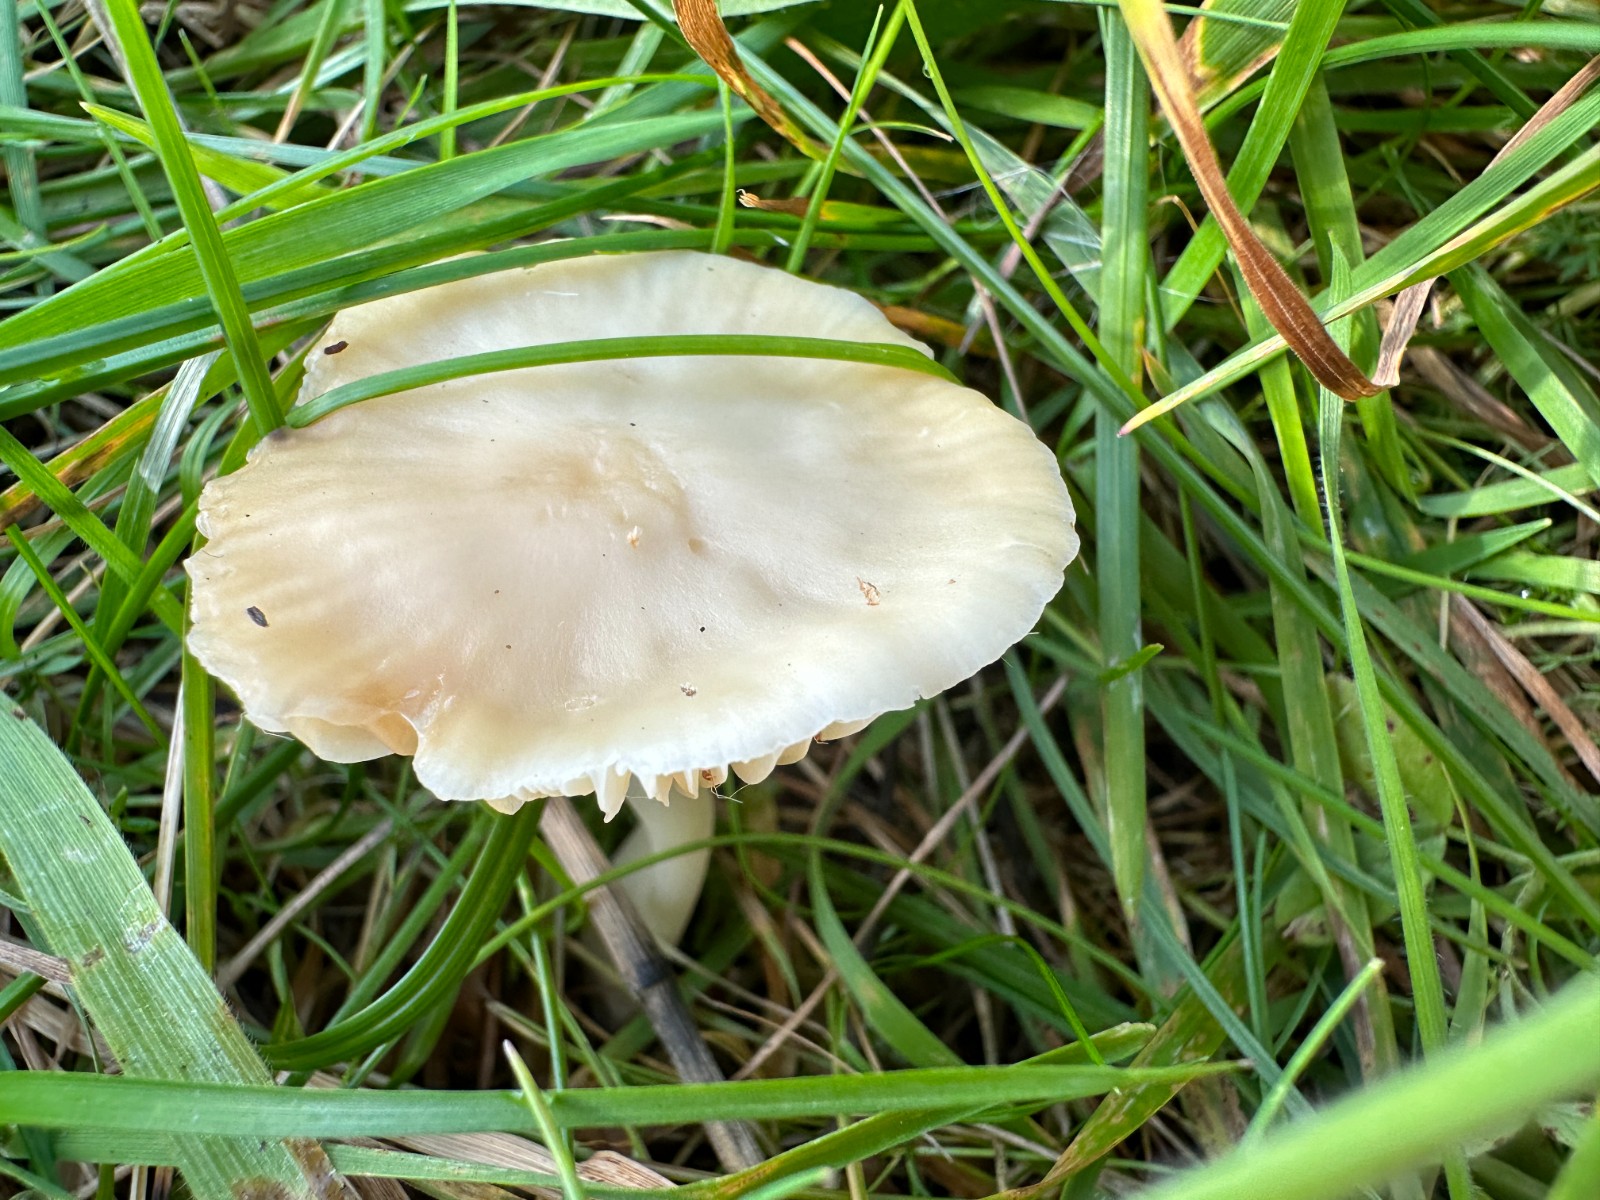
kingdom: Fungi
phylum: Basidiomycota
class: Agaricomycetes
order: Agaricales
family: Hygrophoraceae
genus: Cuphophyllus
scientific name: Cuphophyllus
